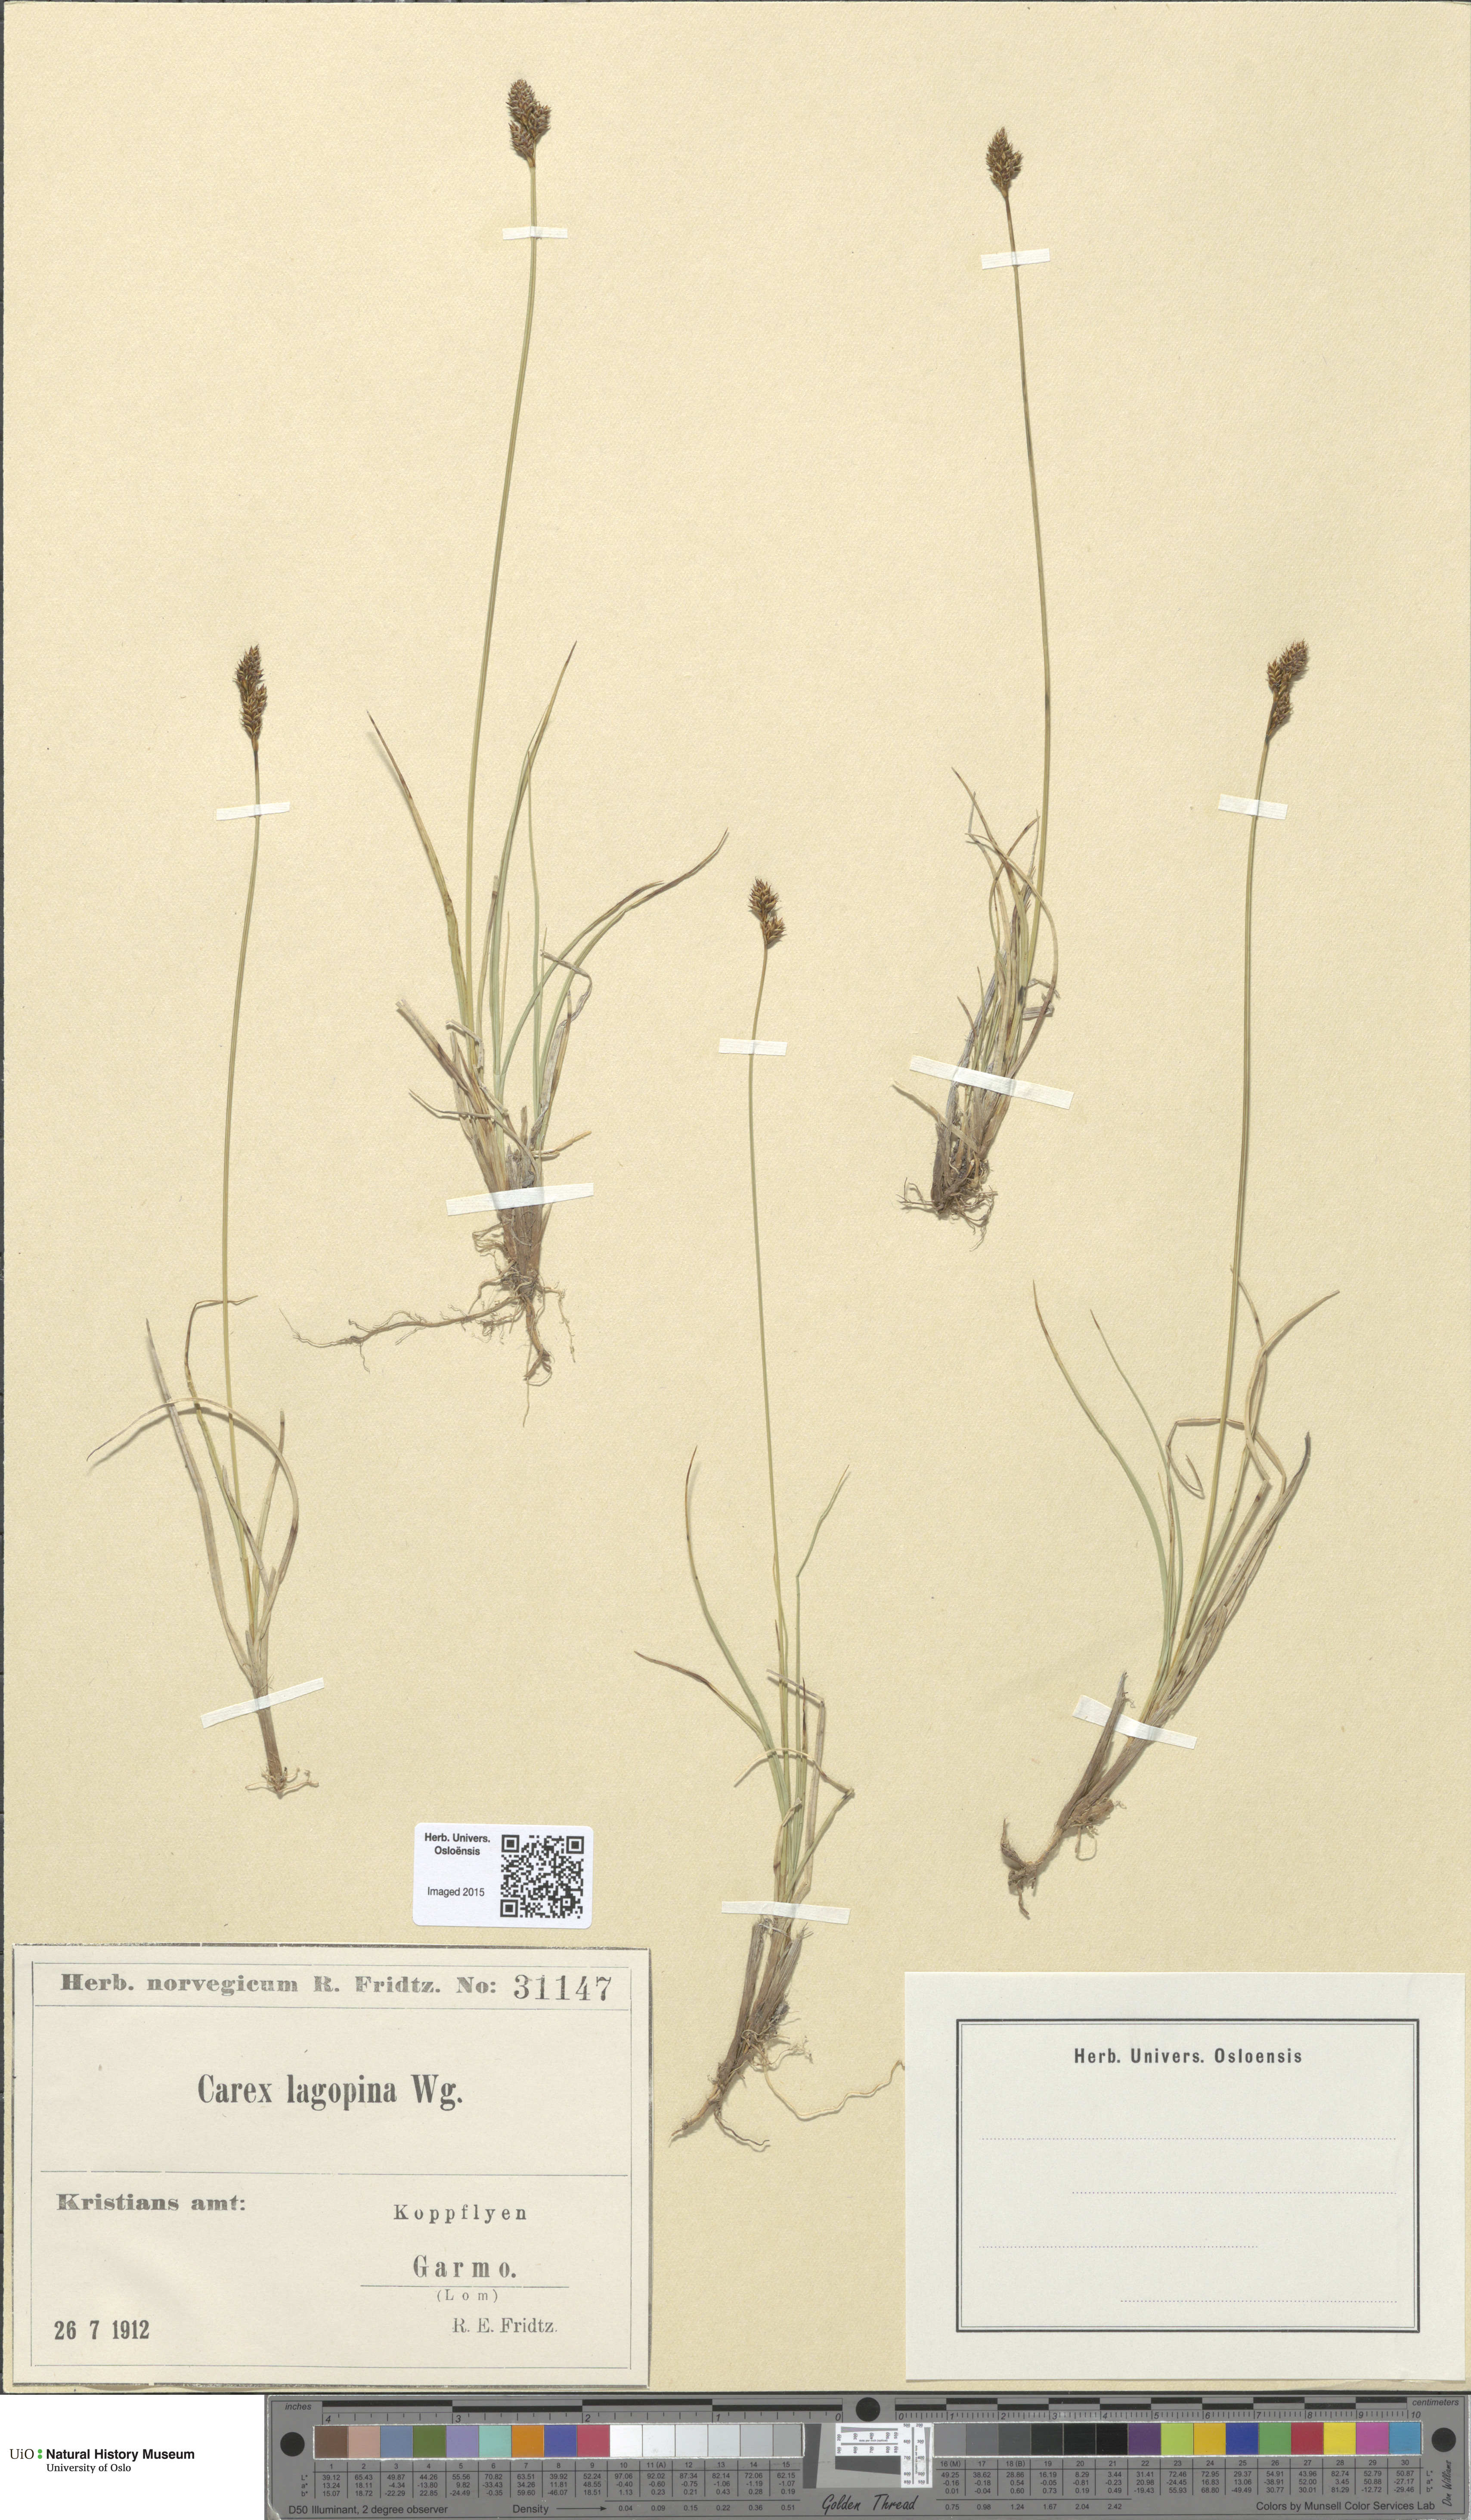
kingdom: Plantae
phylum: Tracheophyta
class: Liliopsida
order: Poales
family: Cyperaceae
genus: Carex
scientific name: Carex lachenalii
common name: Hare's-foot sedge
